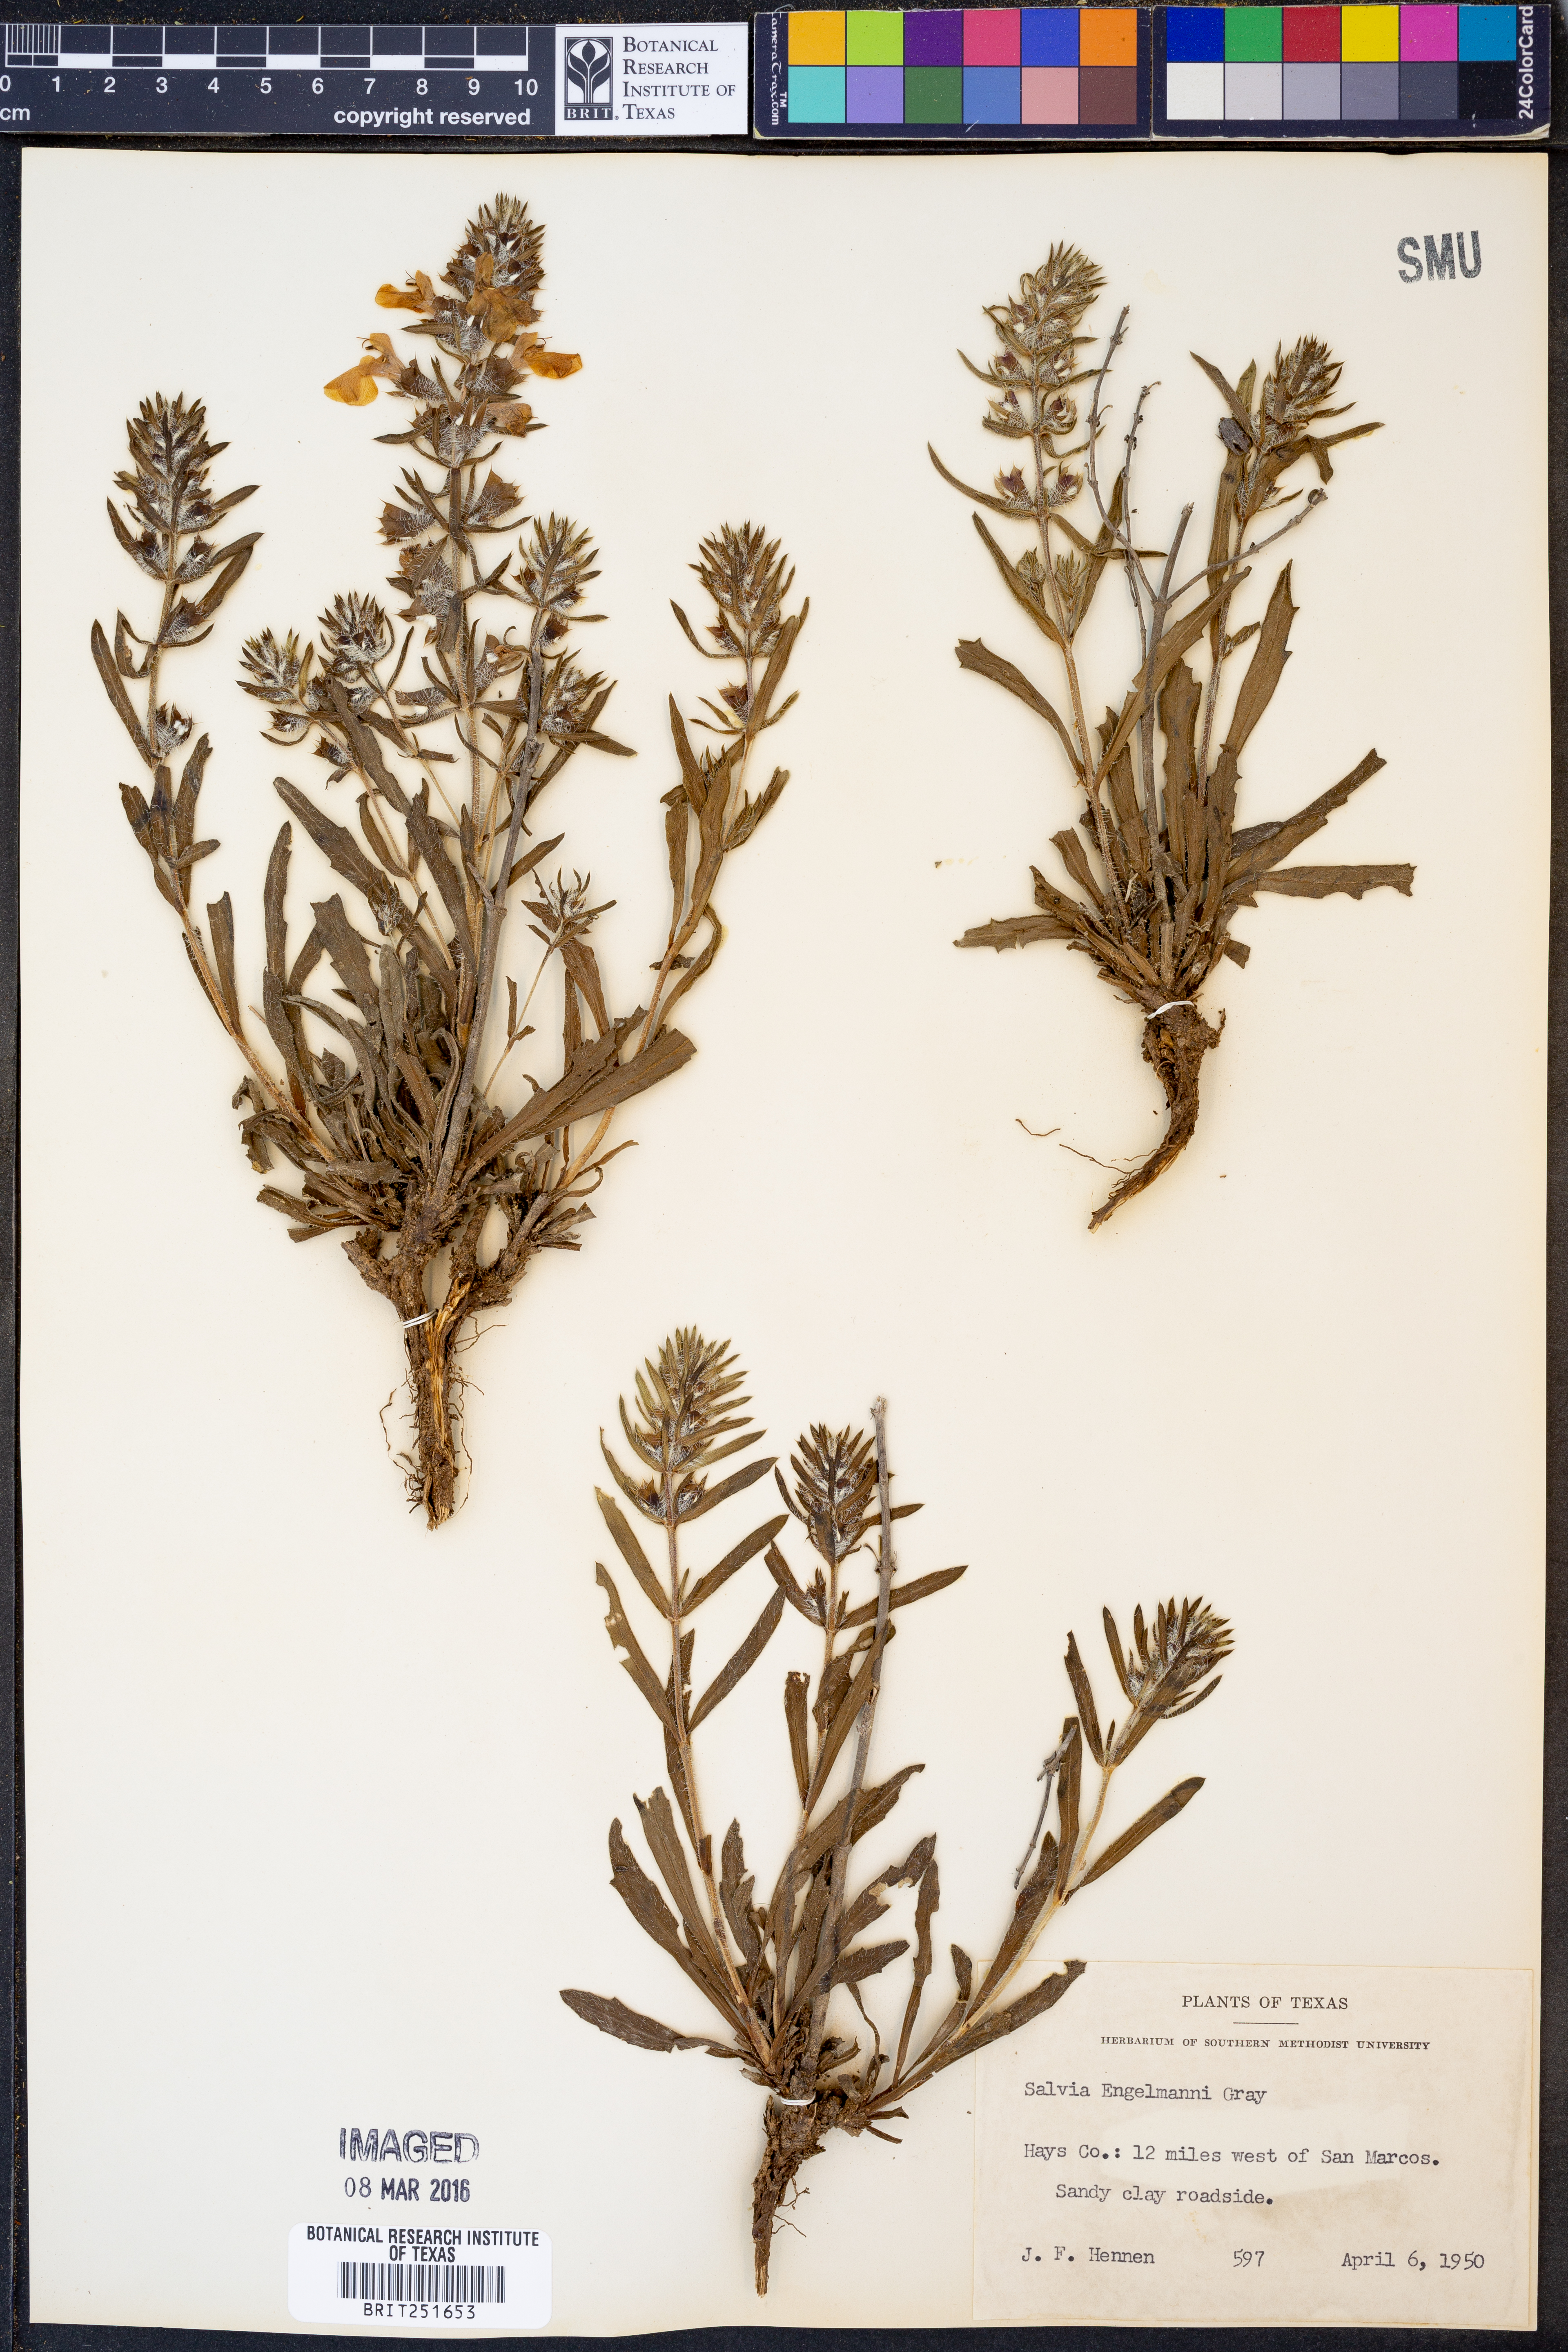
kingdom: Plantae
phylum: Tracheophyta
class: Magnoliopsida
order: Lamiales
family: Lamiaceae
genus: Salvia
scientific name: Salvia engelmannii
